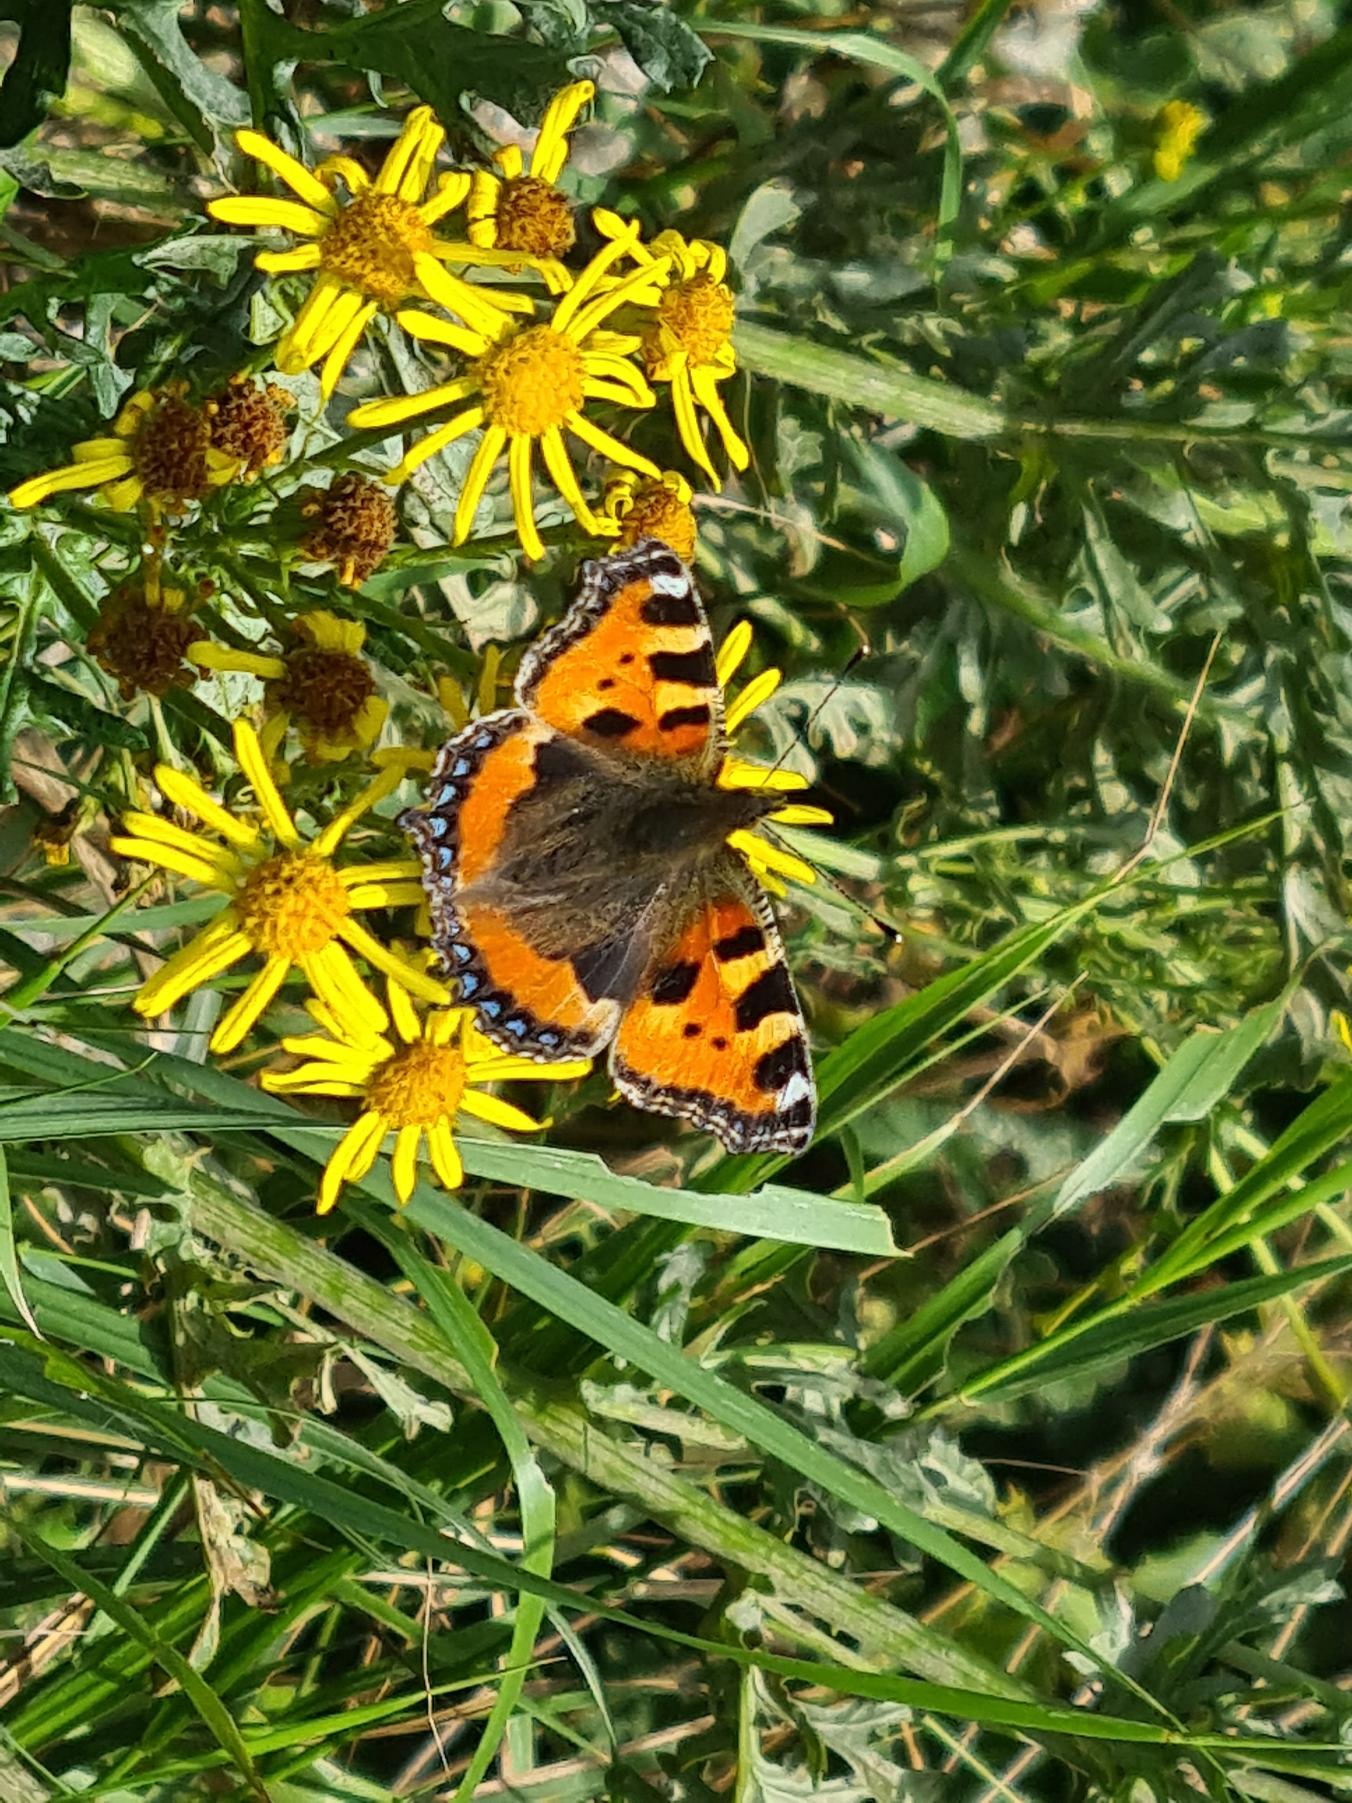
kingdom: Animalia
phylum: Arthropoda
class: Insecta
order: Lepidoptera
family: Nymphalidae
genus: Aglais
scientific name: Aglais urticae
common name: Nældens takvinge
